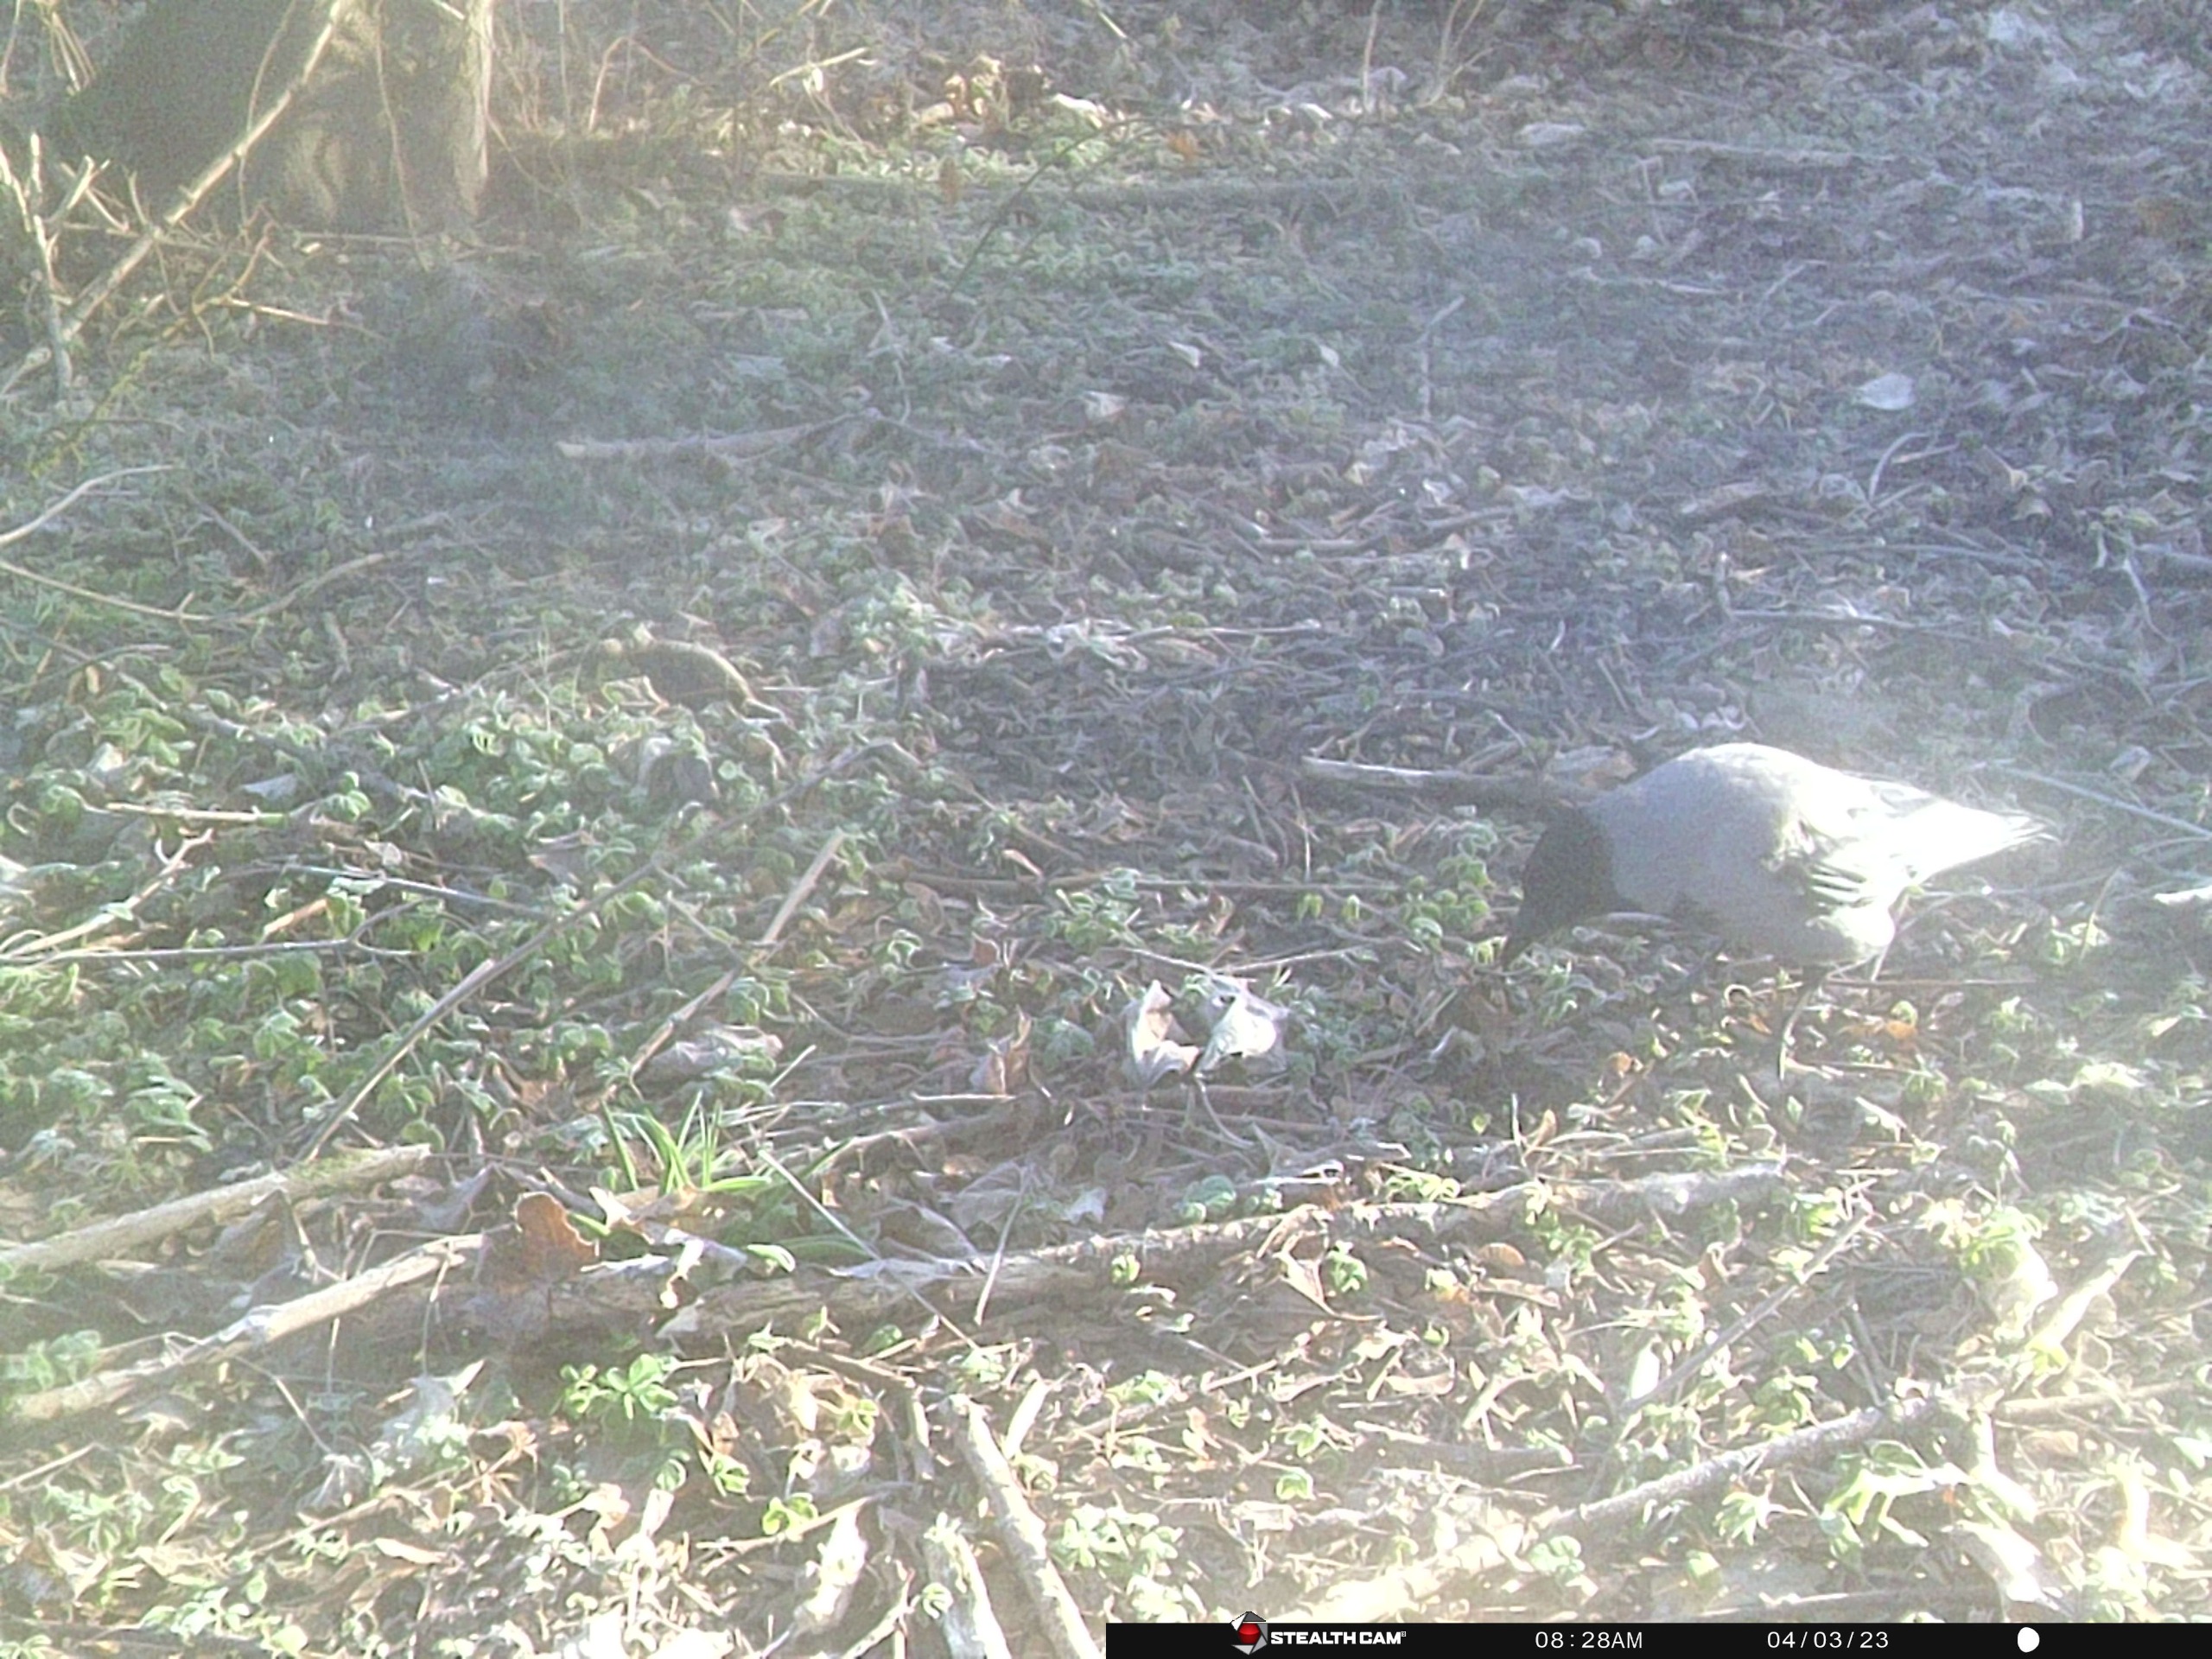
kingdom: Animalia
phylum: Chordata
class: Aves
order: Passeriformes
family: Corvidae
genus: Corvus
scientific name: Corvus cornix
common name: Gråkrage
